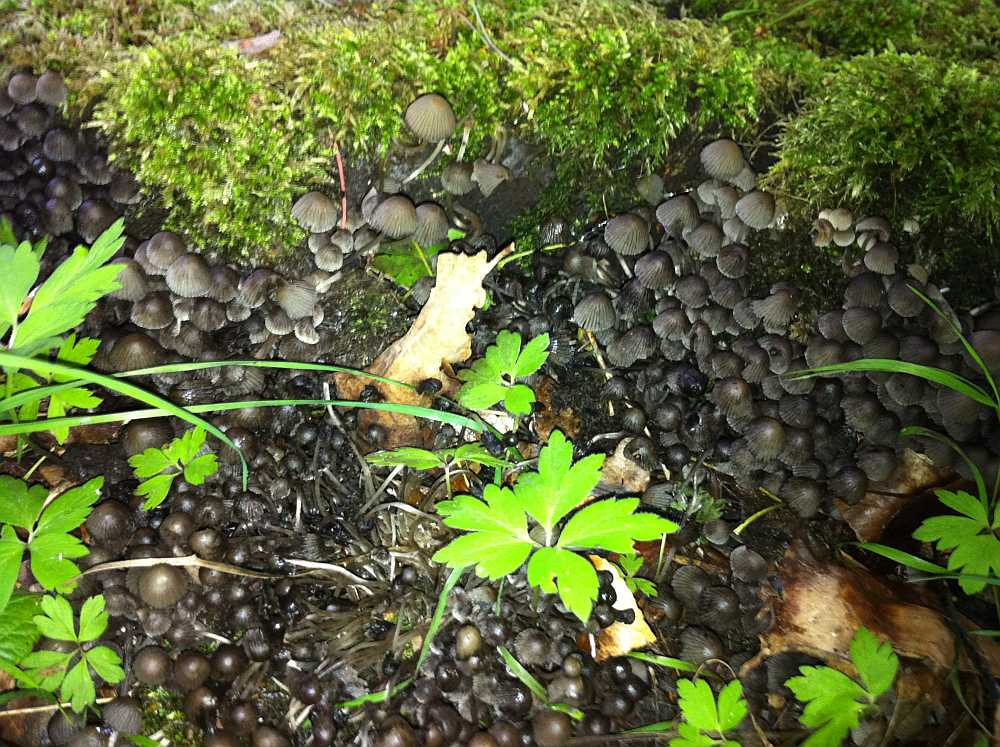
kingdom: Fungi
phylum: Basidiomycota
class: Agaricomycetes
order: Agaricales
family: Psathyrellaceae
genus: Coprinellus
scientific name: Coprinellus disseminatus
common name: bredsået blækhat
